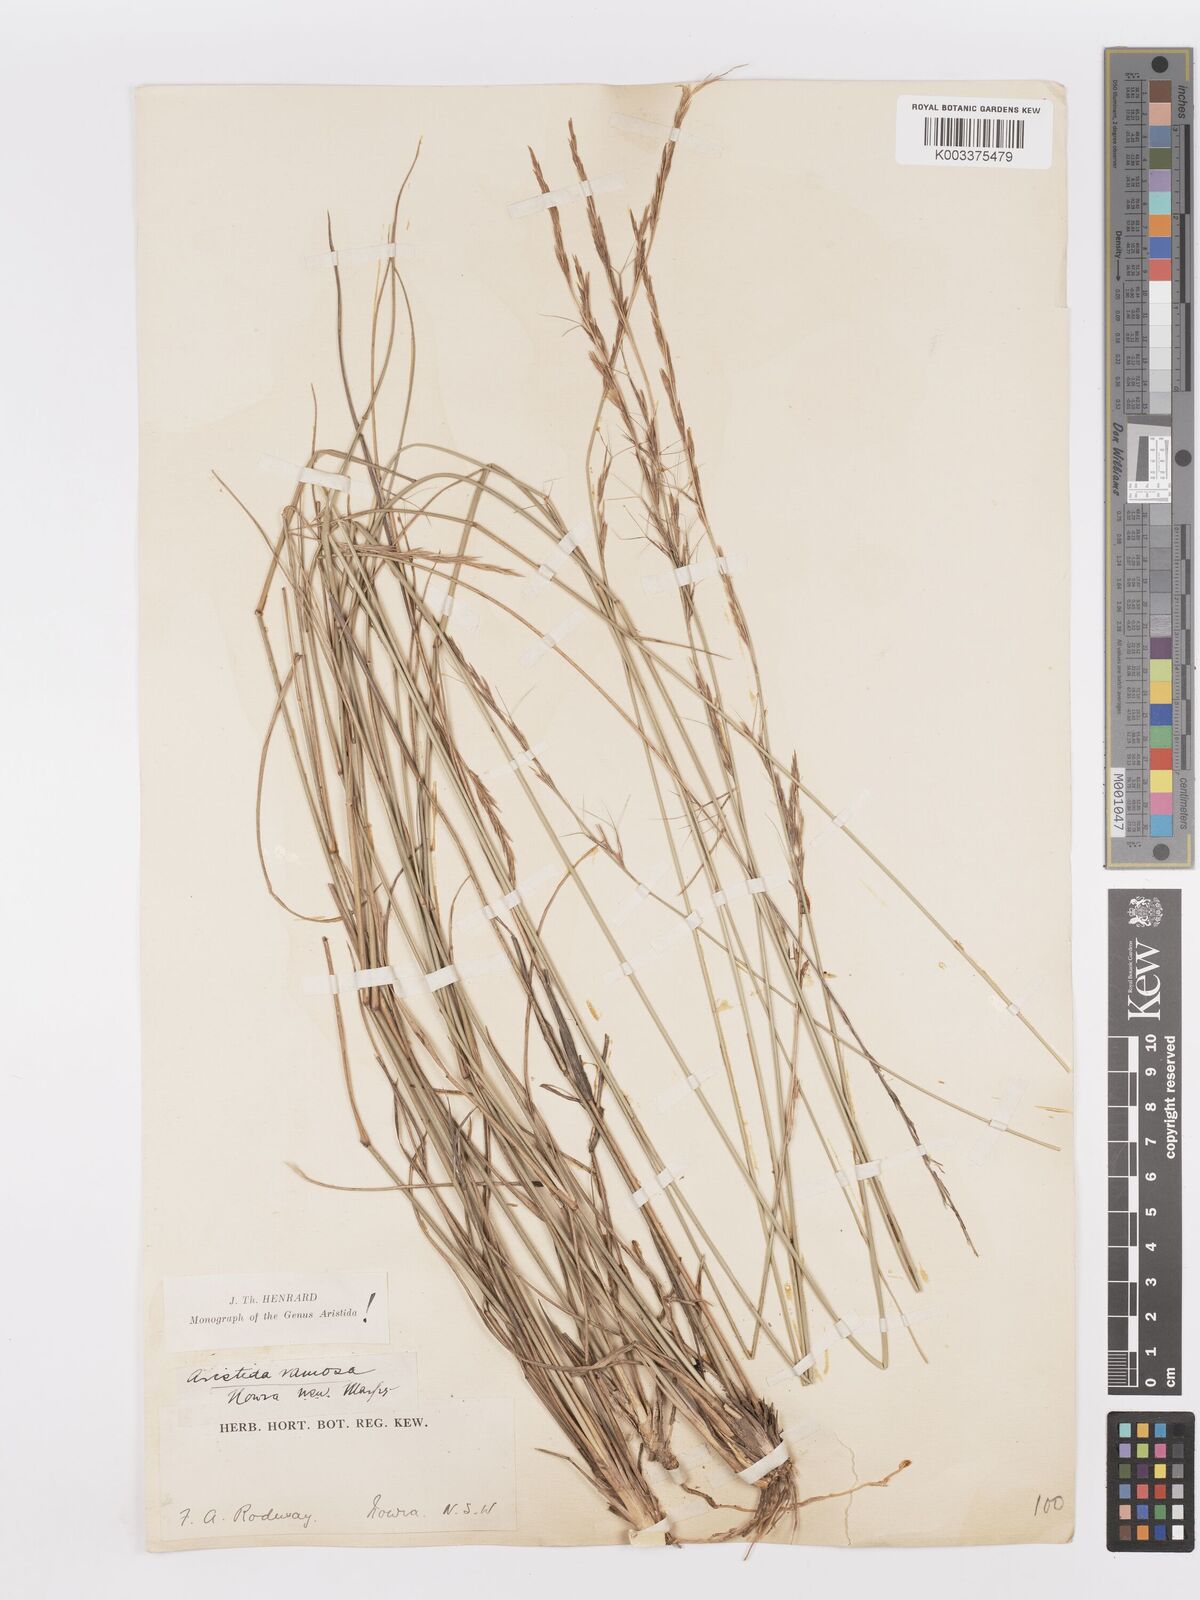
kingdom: Plantae
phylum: Tracheophyta
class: Liliopsida
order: Poales
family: Poaceae
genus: Aristida
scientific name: Aristida ramosa
